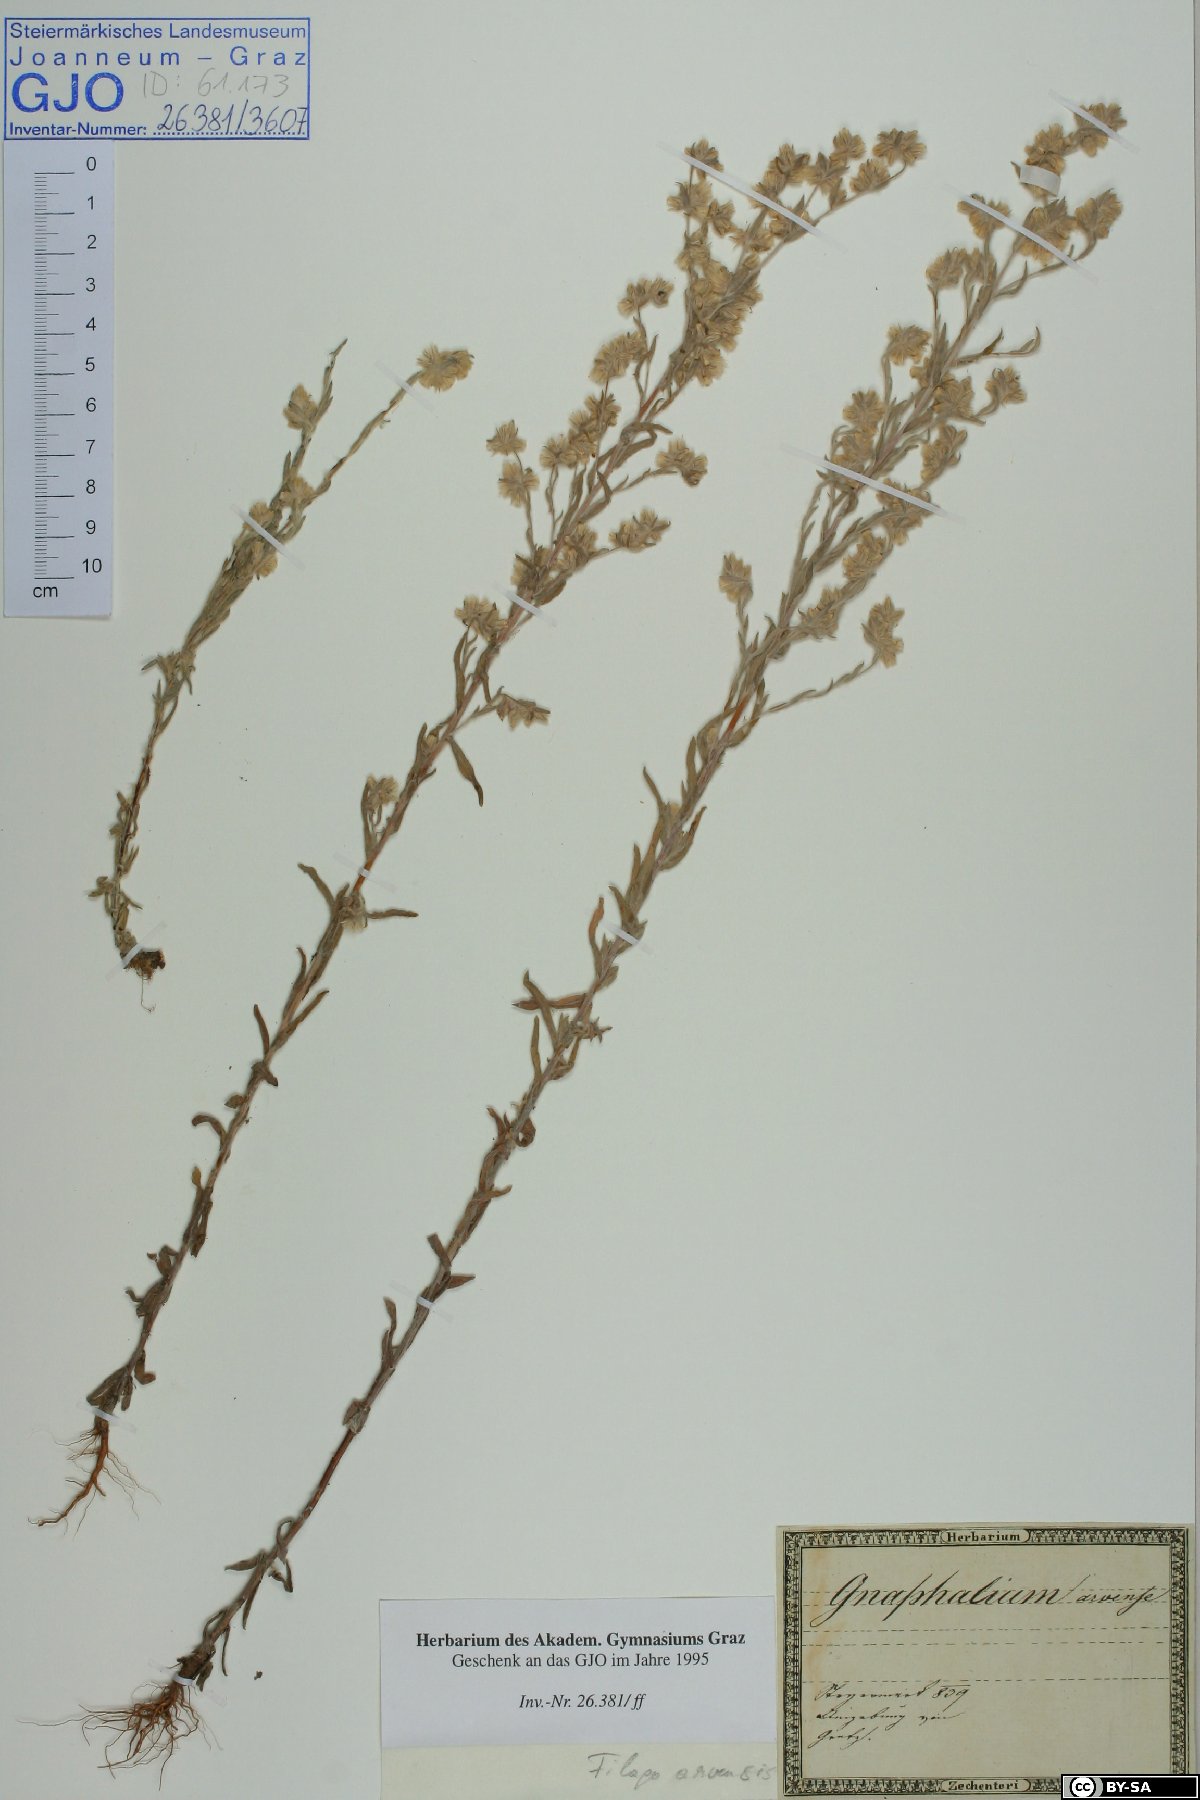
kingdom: Plantae
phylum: Tracheophyta
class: Magnoliopsida
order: Asterales
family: Asteraceae
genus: Filago
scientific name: Filago arvensis
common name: Field cudweed
